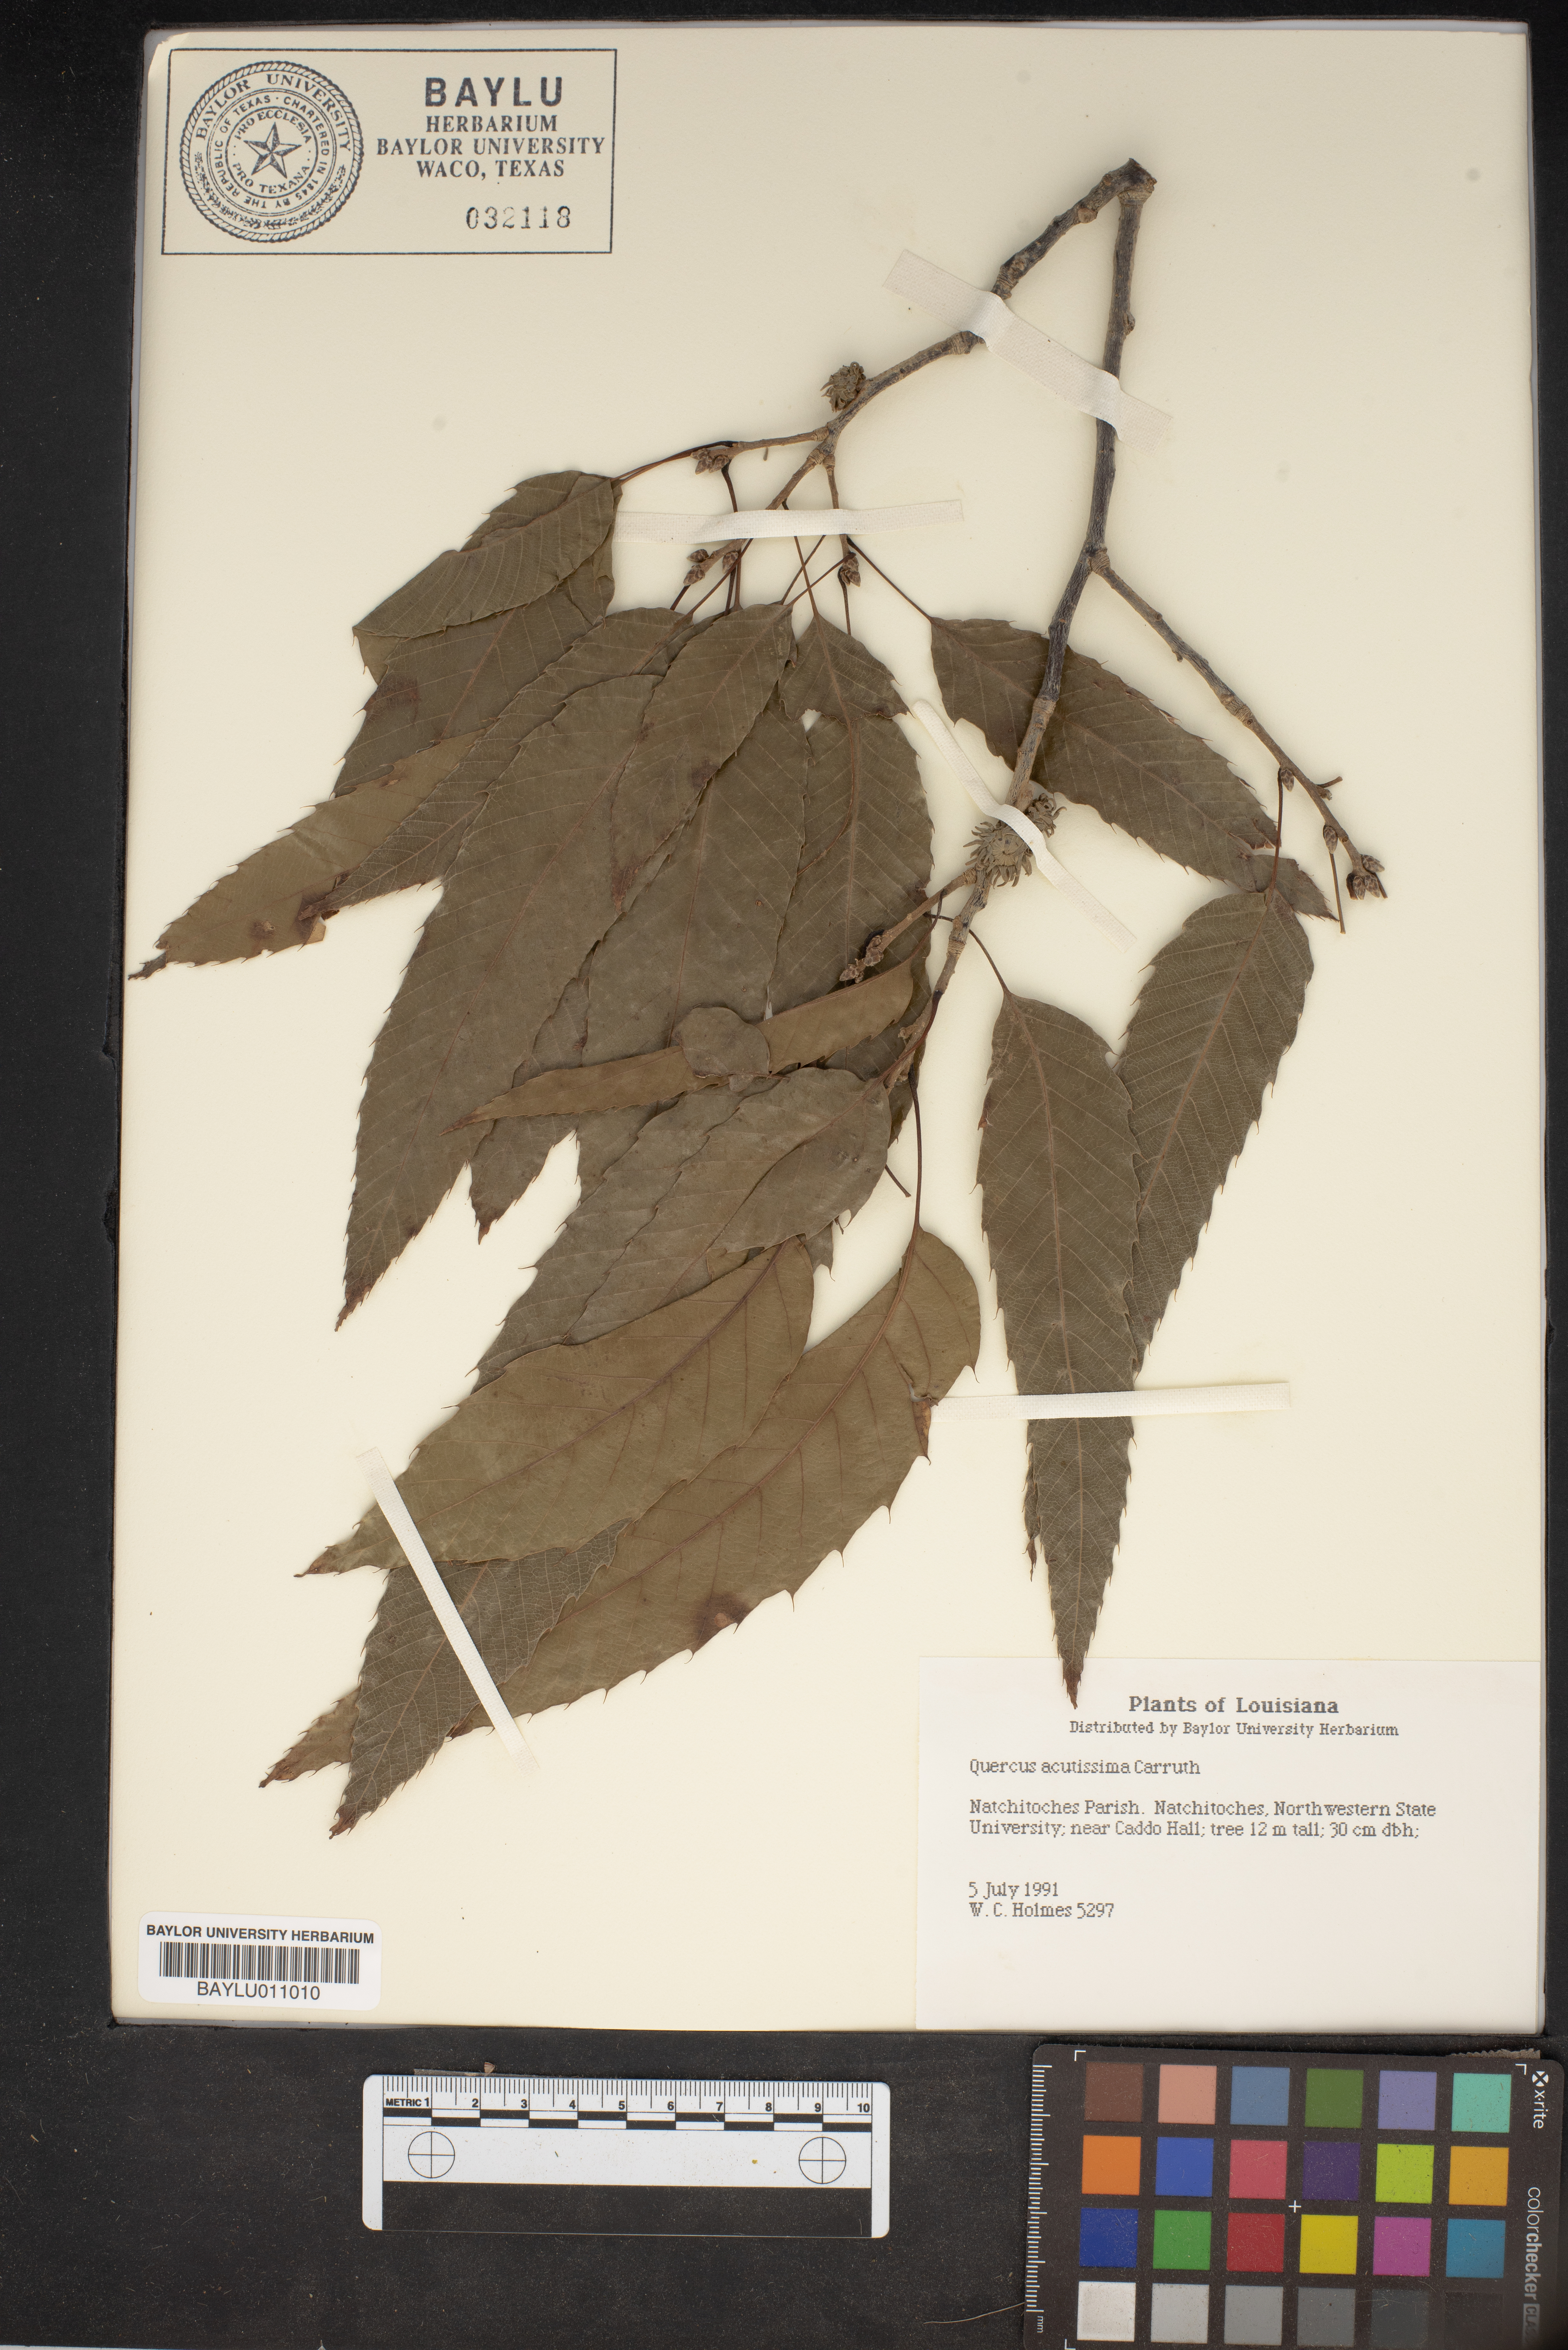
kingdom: Plantae
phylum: Tracheophyta
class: Magnoliopsida
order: Fagales
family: Fagaceae
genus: Quercus
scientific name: Quercus acutissima
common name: Sawtooth oak
